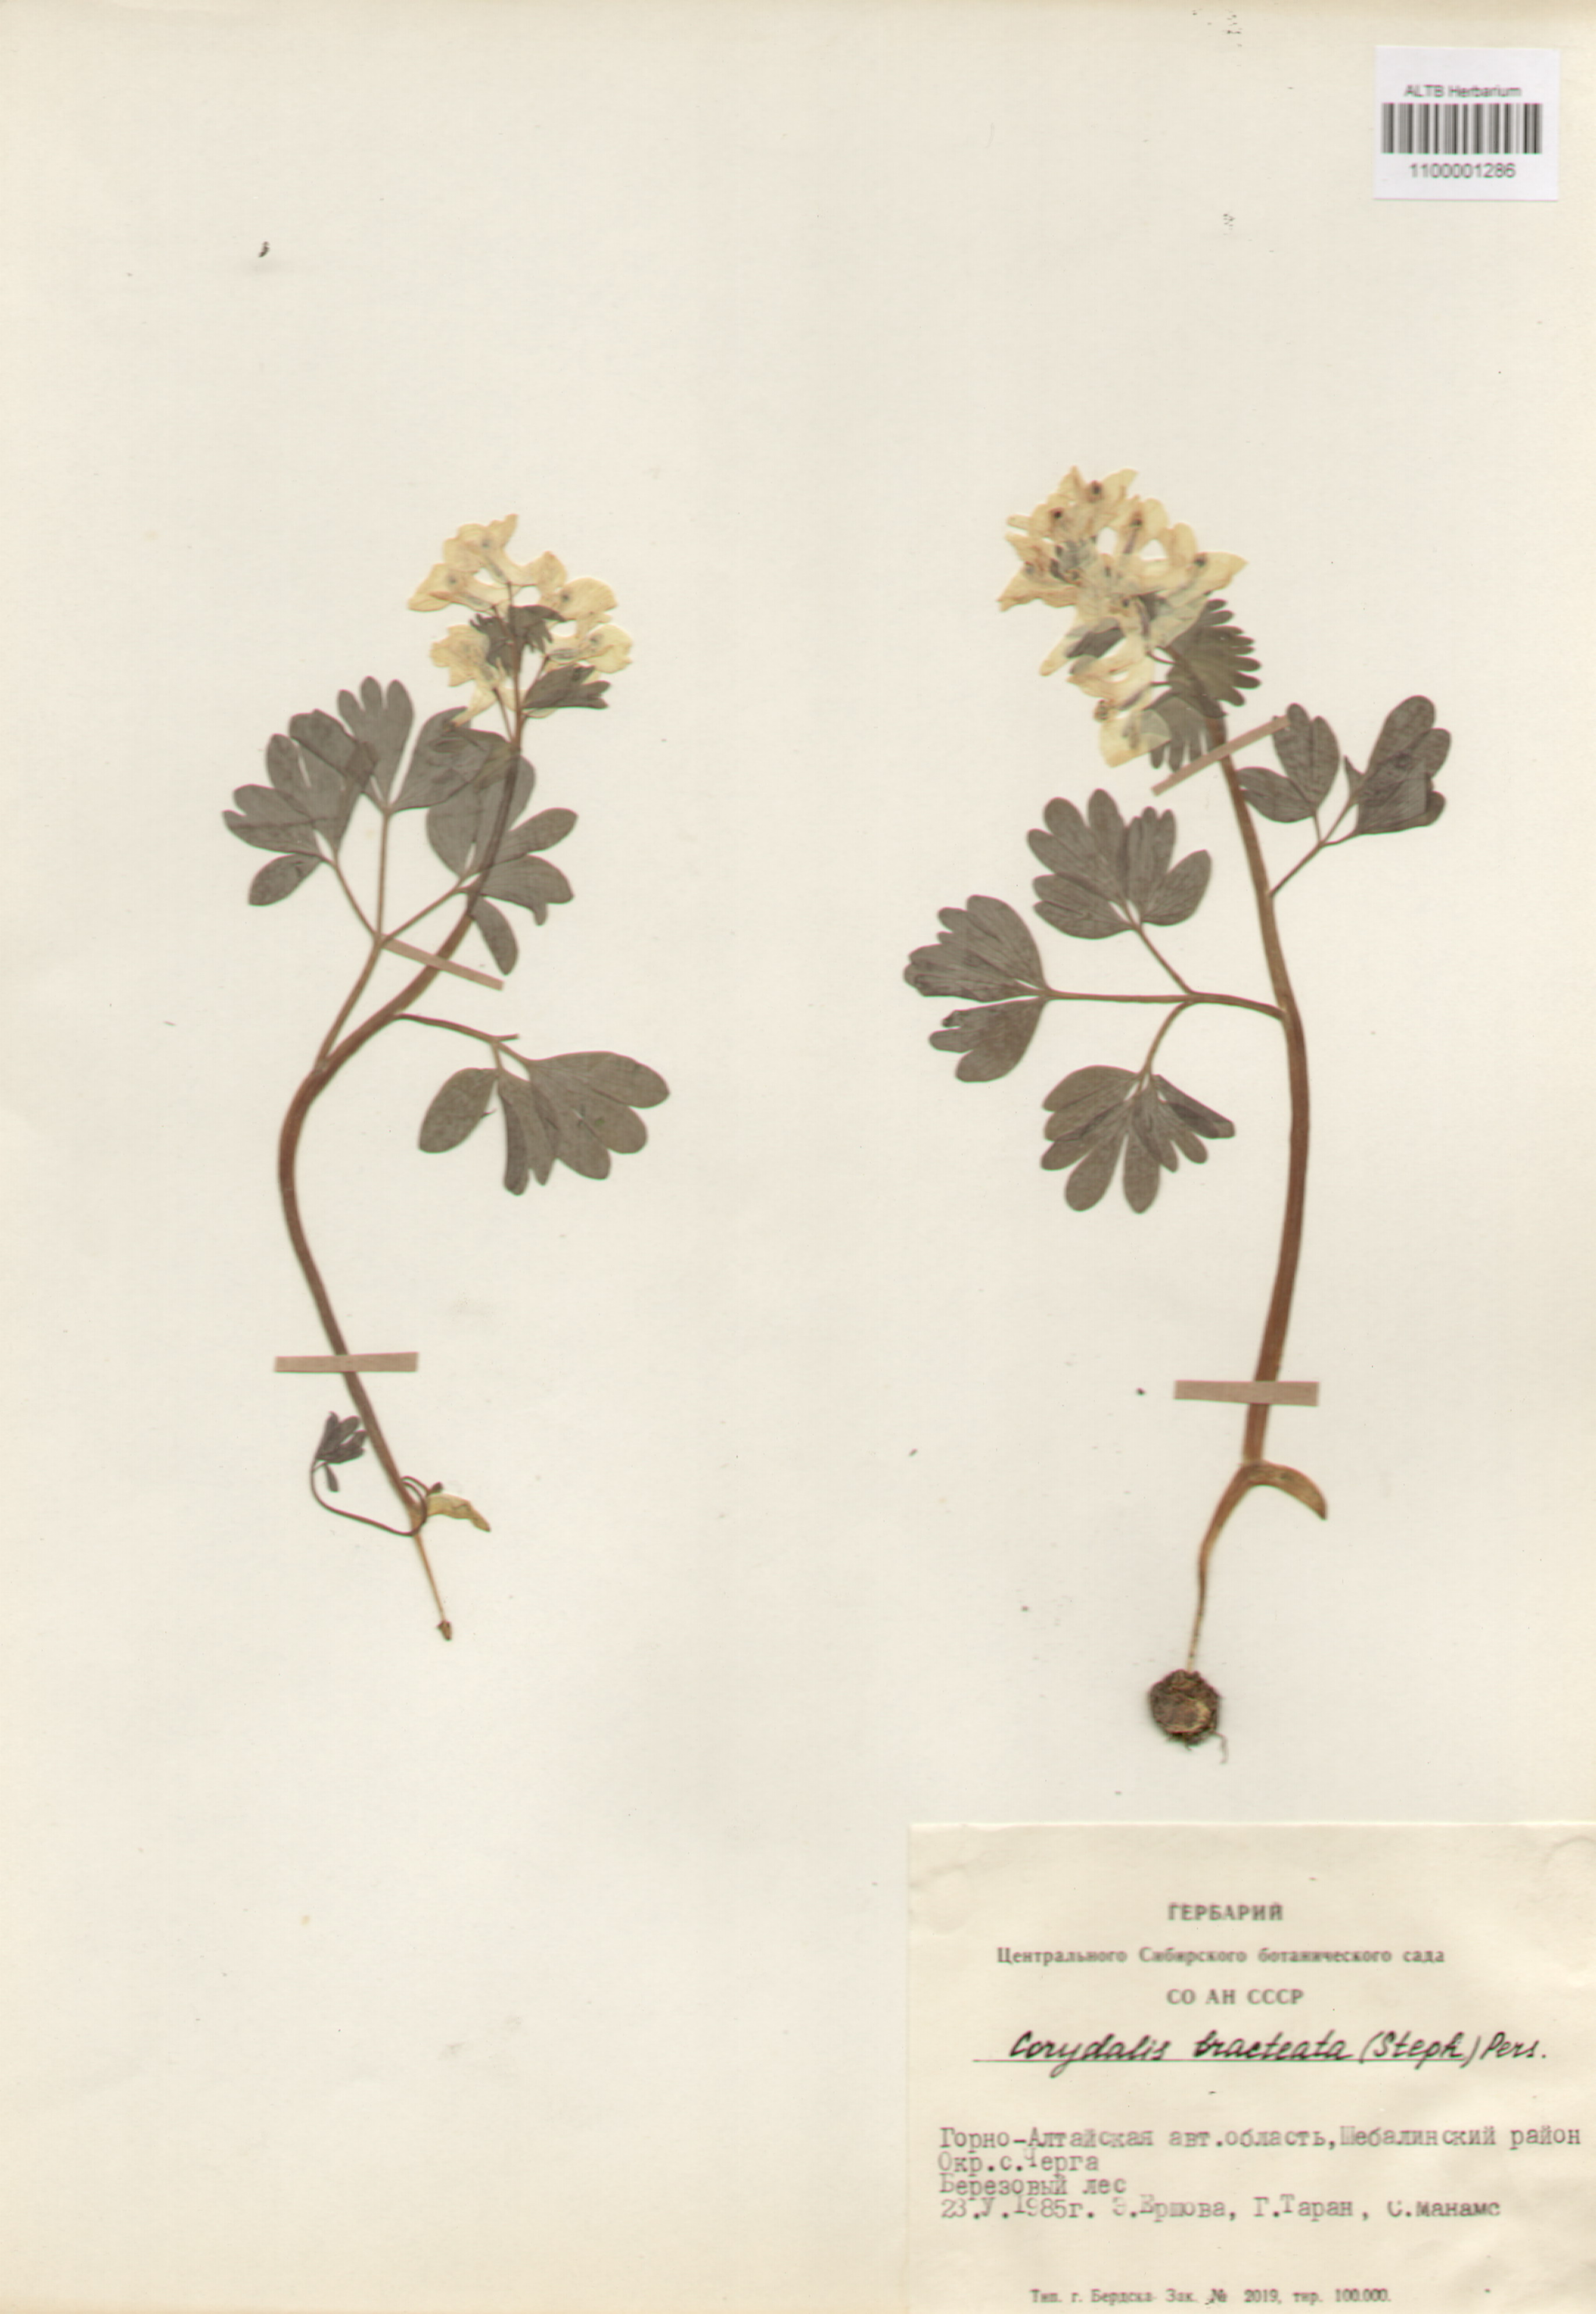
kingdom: Plantae
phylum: Tracheophyta
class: Magnoliopsida
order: Ranunculales
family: Papaveraceae
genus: Corydalis
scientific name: Corydalis bracteata
